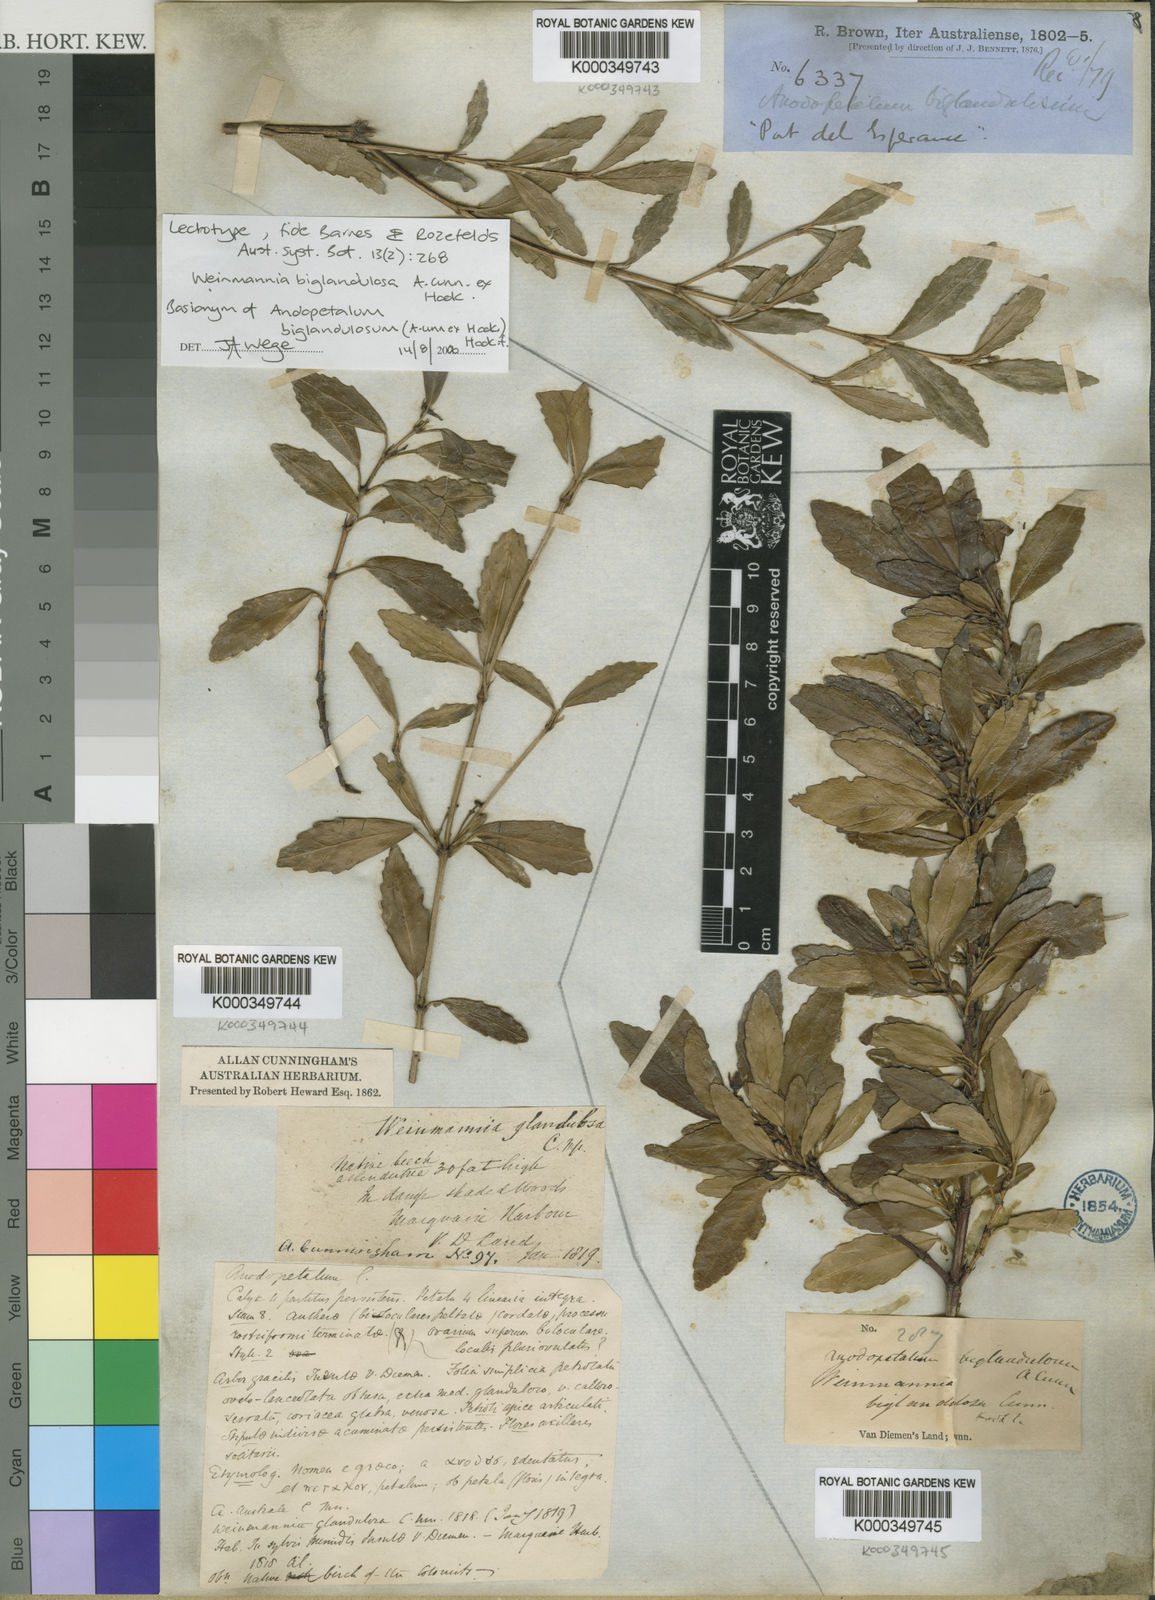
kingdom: Plantae
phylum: Tracheophyta
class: Magnoliopsida
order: Oxalidales
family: Cunoniaceae
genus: Anodopetalum
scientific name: Anodopetalum biglandulosum
